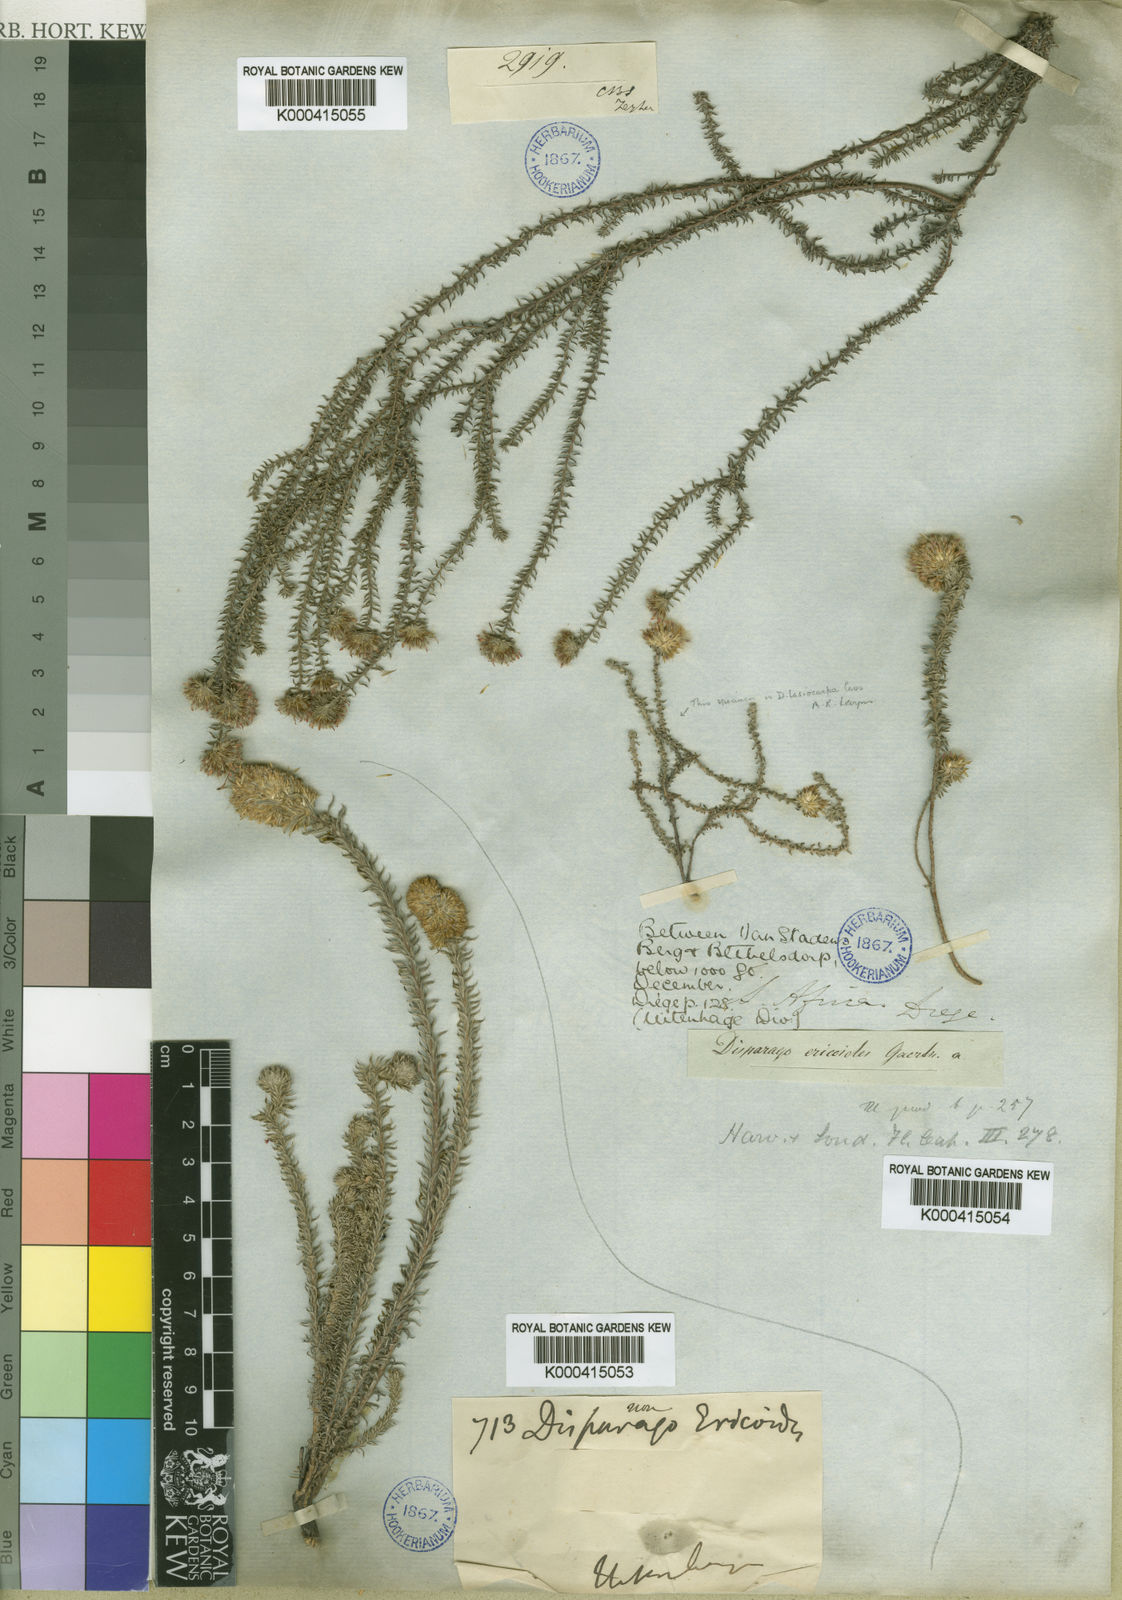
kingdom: Plantae
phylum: Tracheophyta
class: Magnoliopsida
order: Asterales
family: Asteraceae
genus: Disparago
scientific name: Disparago tortilis
